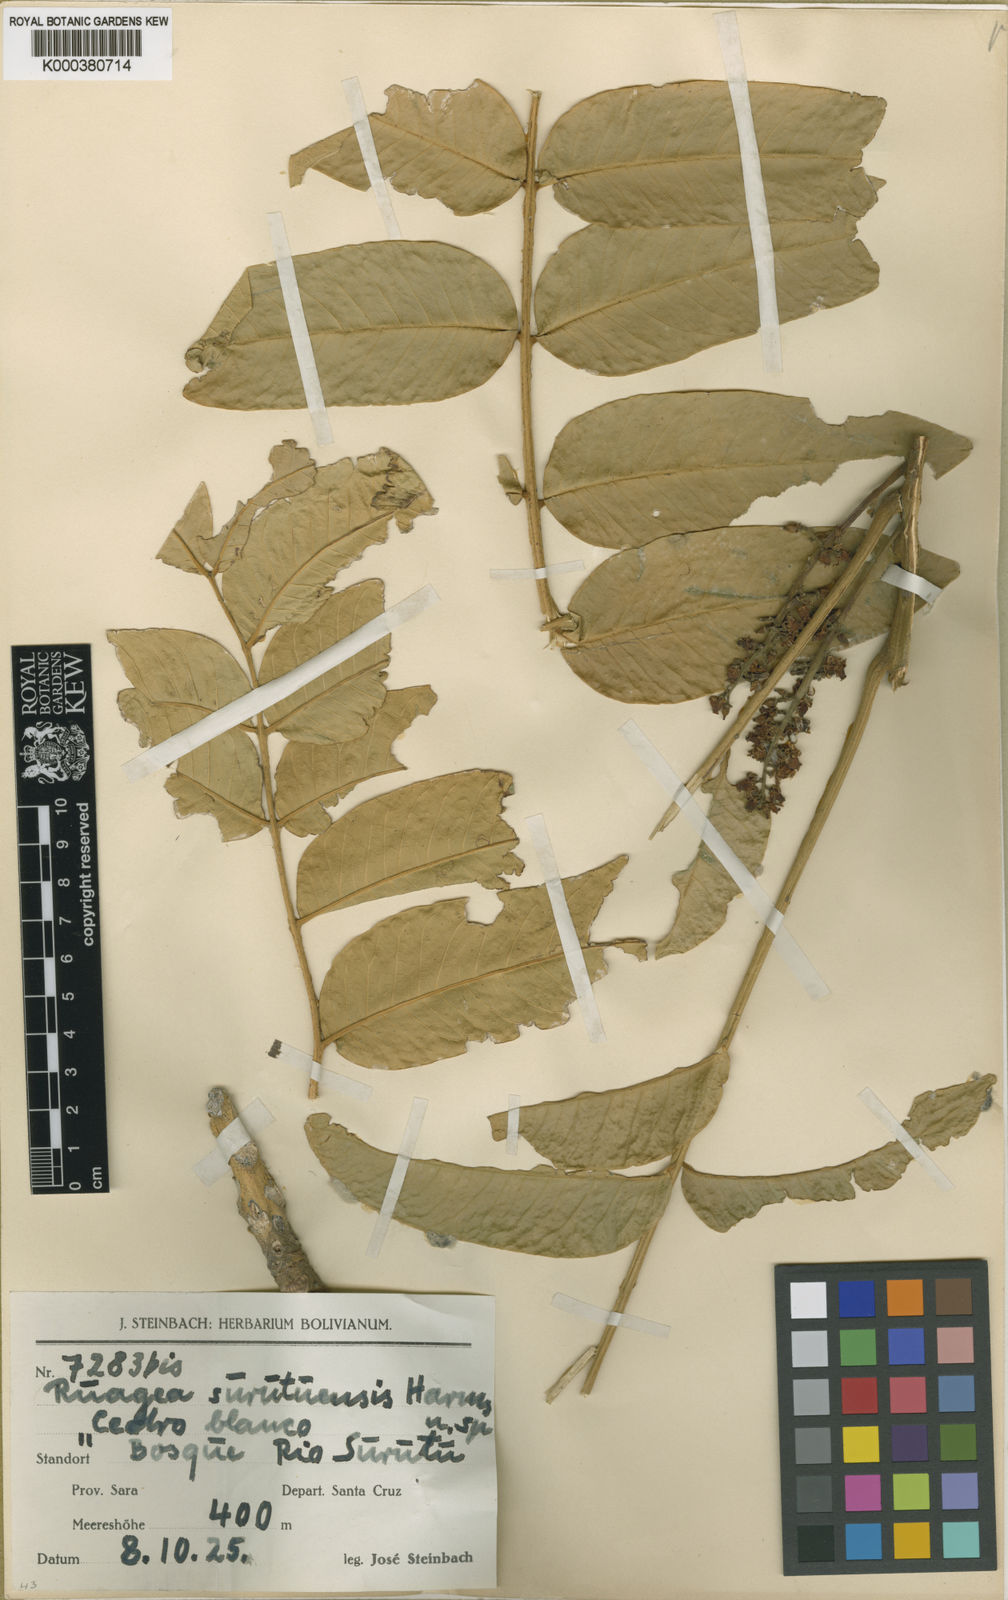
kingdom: Plantae
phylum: Tracheophyta
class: Magnoliopsida
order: Sapindales
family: Meliaceae
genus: Ruagea
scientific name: Ruagea insignis
